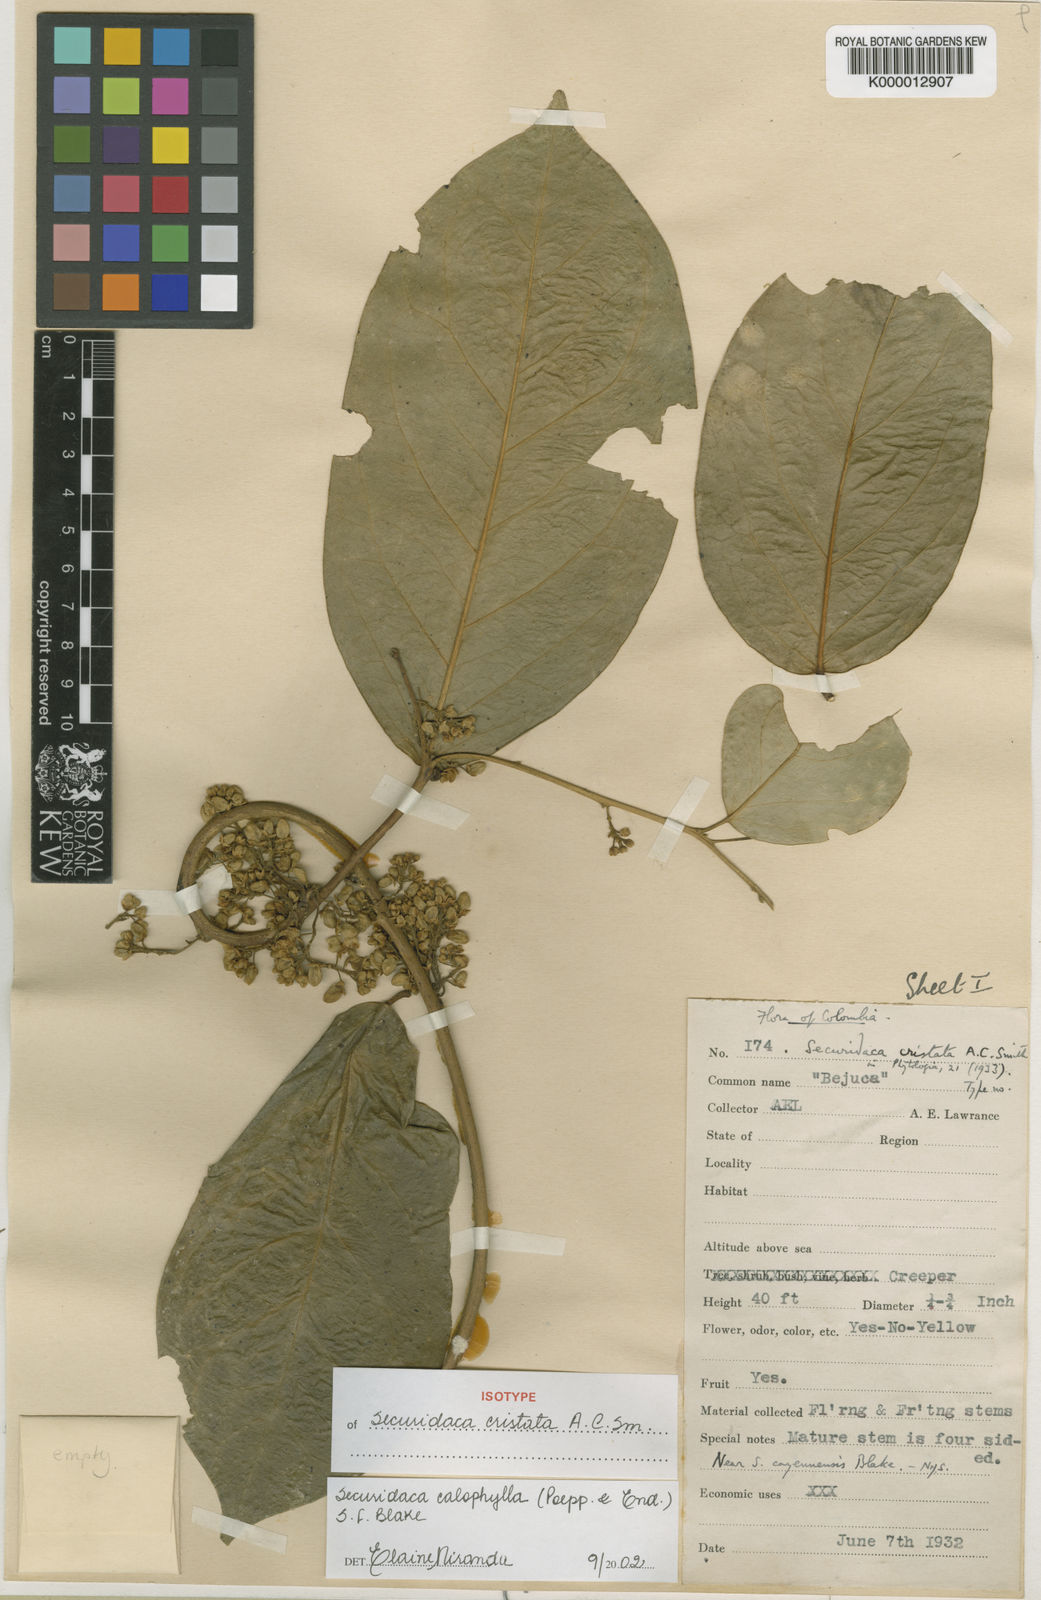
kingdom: Plantae
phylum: Tracheophyta
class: Magnoliopsida
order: Fabales
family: Polygalaceae
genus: Securidaca
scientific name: Securidaca calophylla
